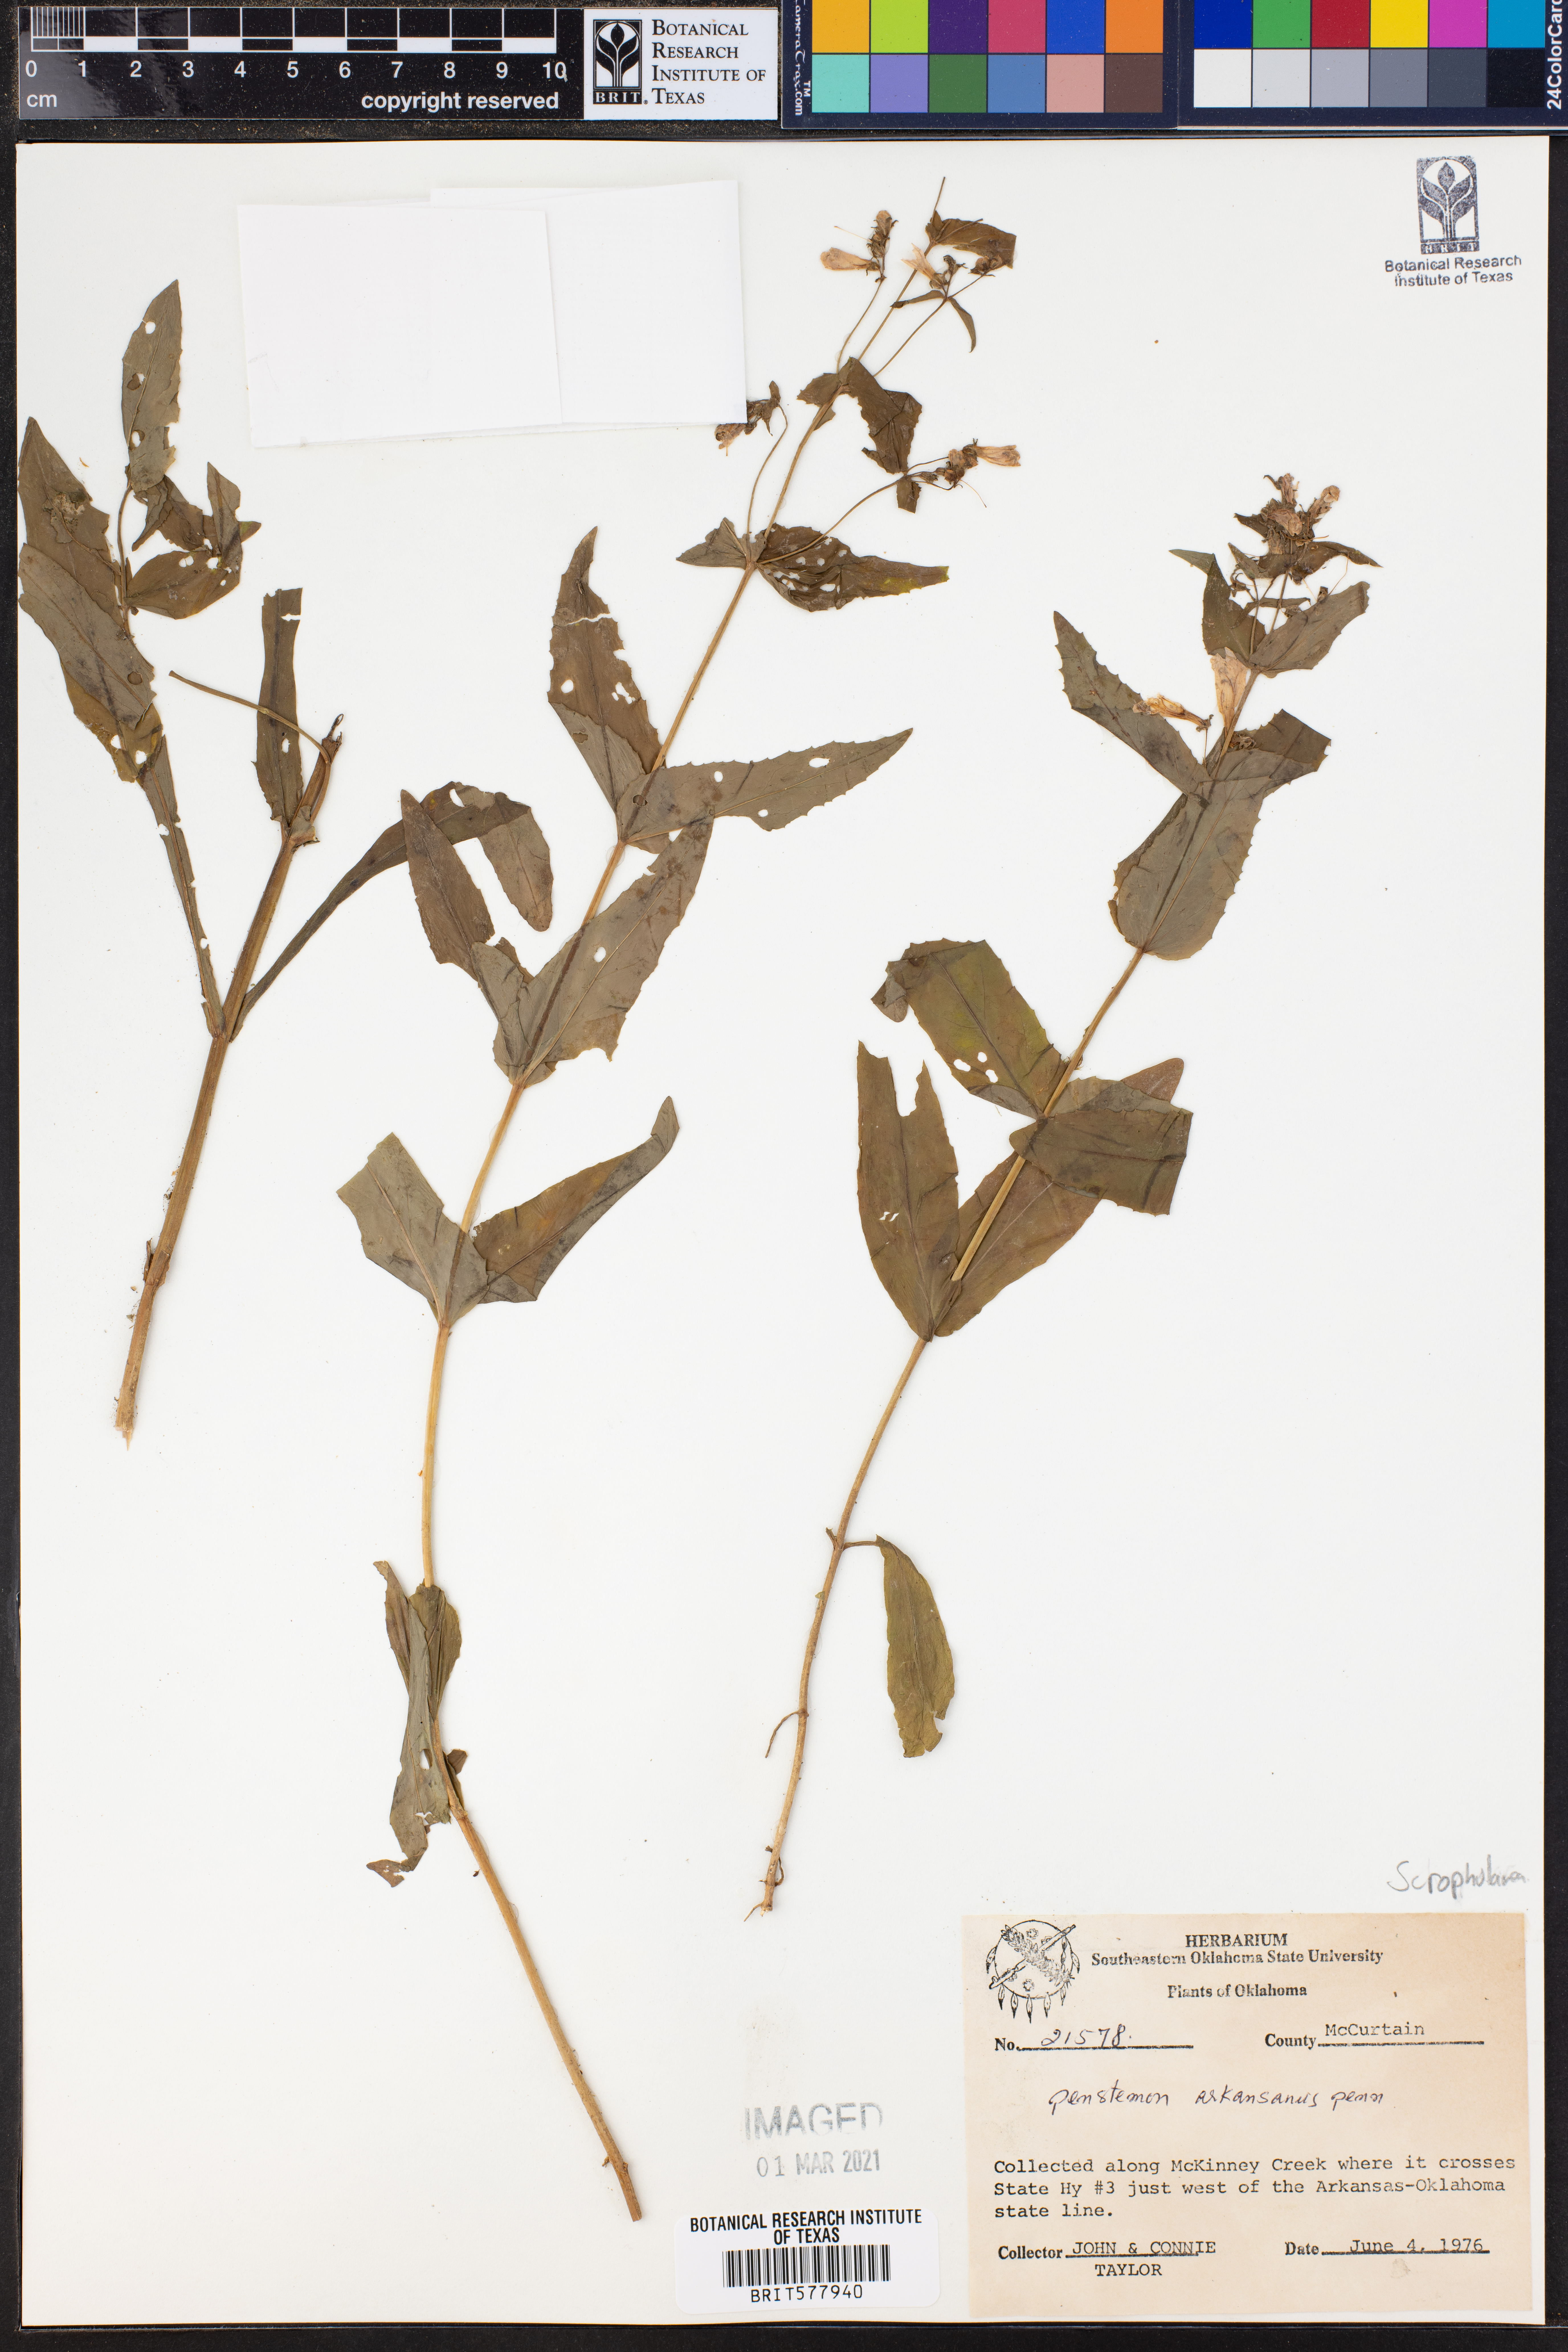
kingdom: Plantae
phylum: Tracheophyta
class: Magnoliopsida
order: Lamiales
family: Plantaginaceae
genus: Penstemon
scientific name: Penstemon arkansanus
